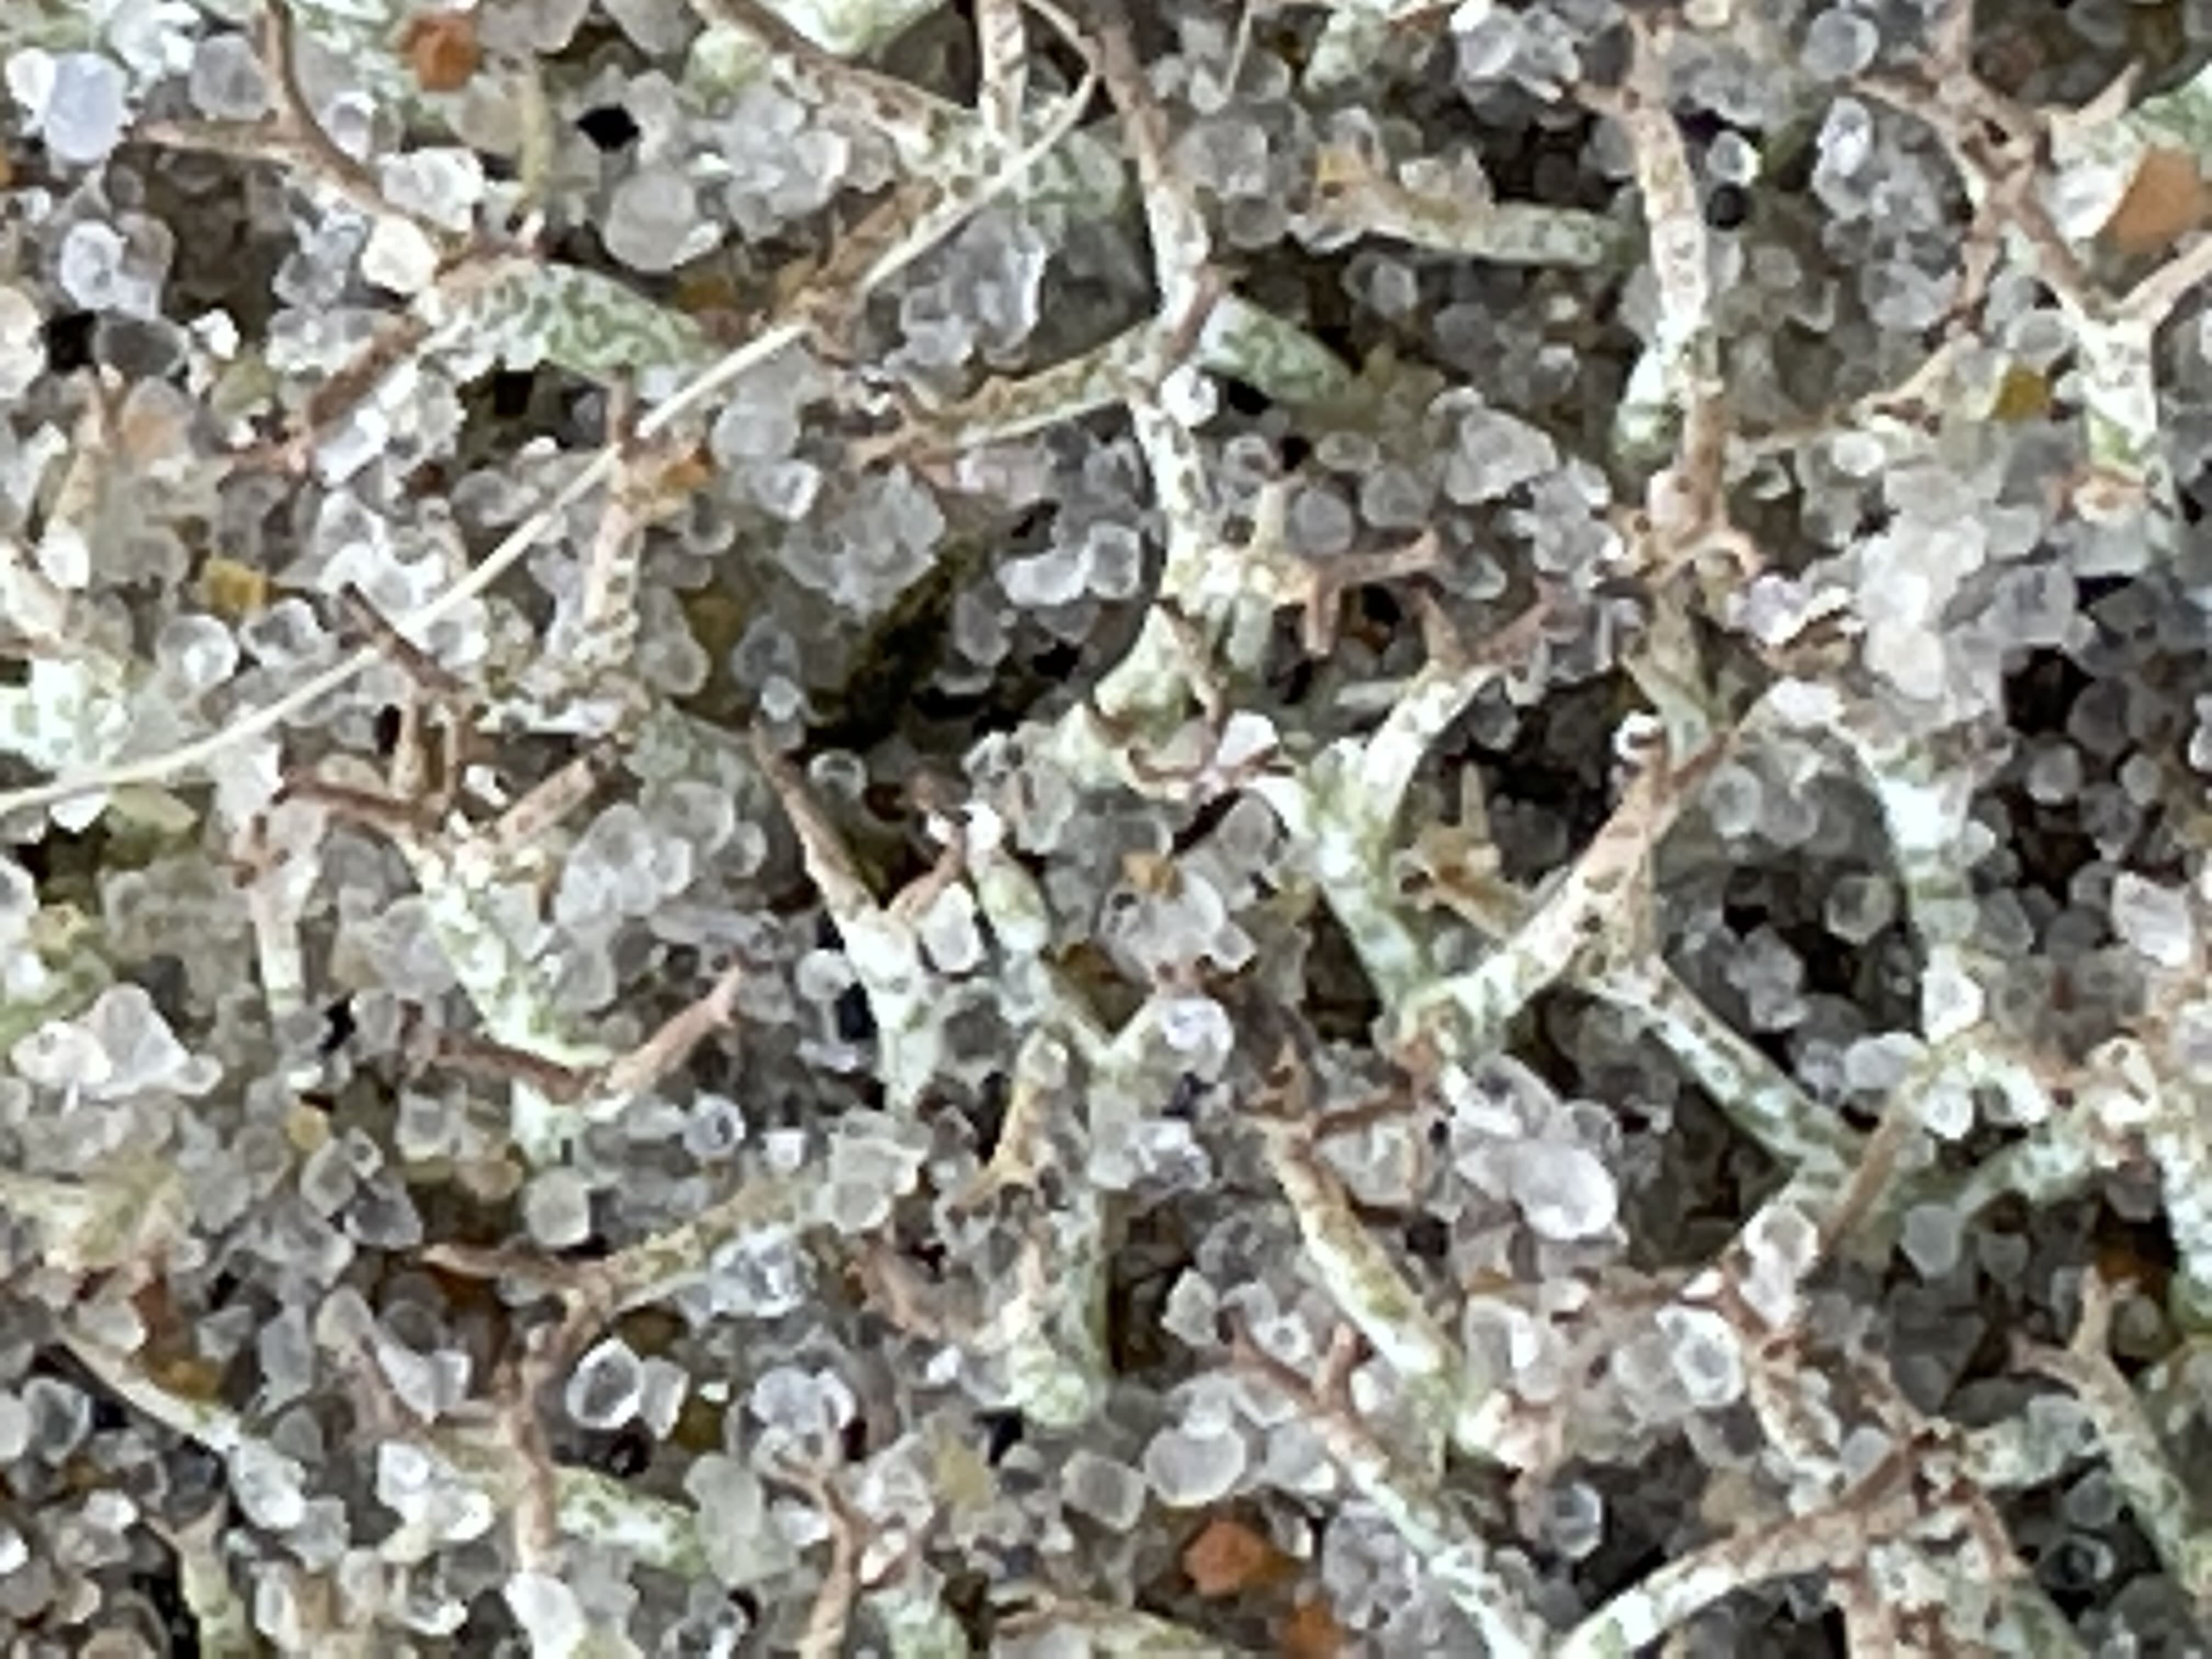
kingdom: Fungi
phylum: Ascomycota
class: Lecanoromycetes
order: Lecanorales
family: Cladoniaceae
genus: Cladonia
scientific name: Cladonia rangiformis
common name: spættet bægerlav
